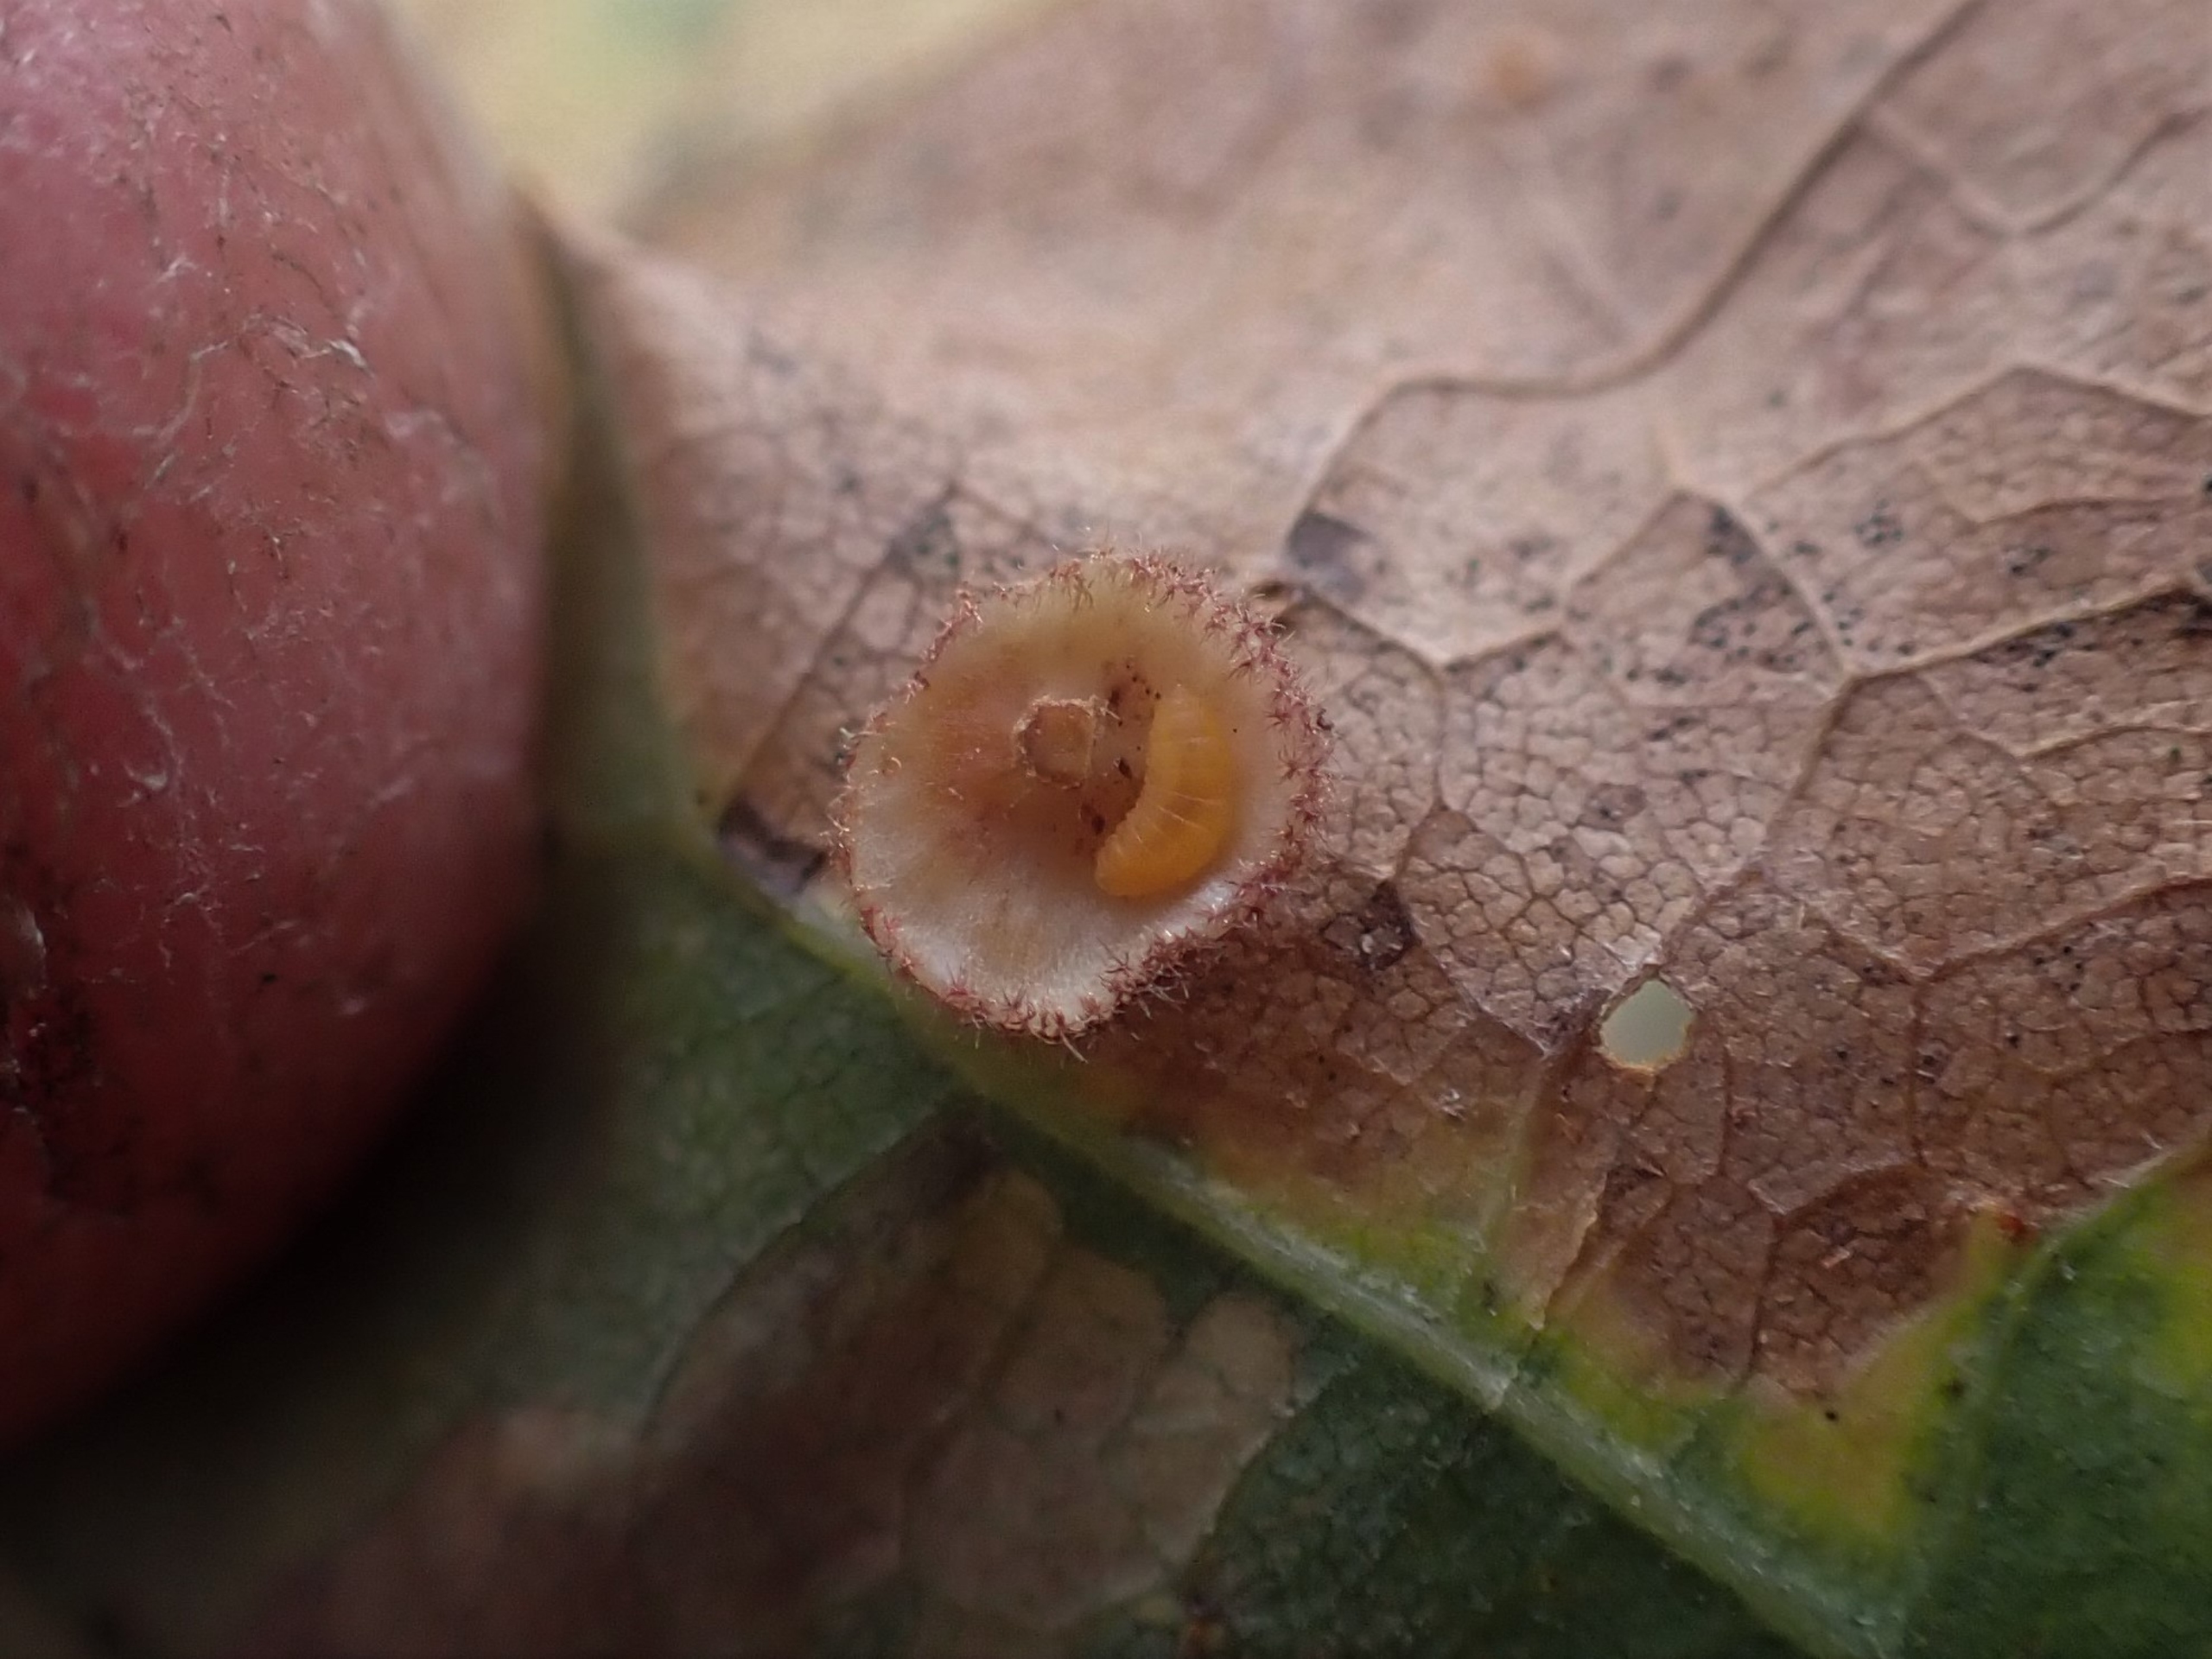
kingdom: Animalia
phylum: Arthropoda
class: Insecta
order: Diptera
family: Cecidomyiidae
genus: Parallelodiplosis
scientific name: Parallelodiplosis galliperda
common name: Underbogalmyg
